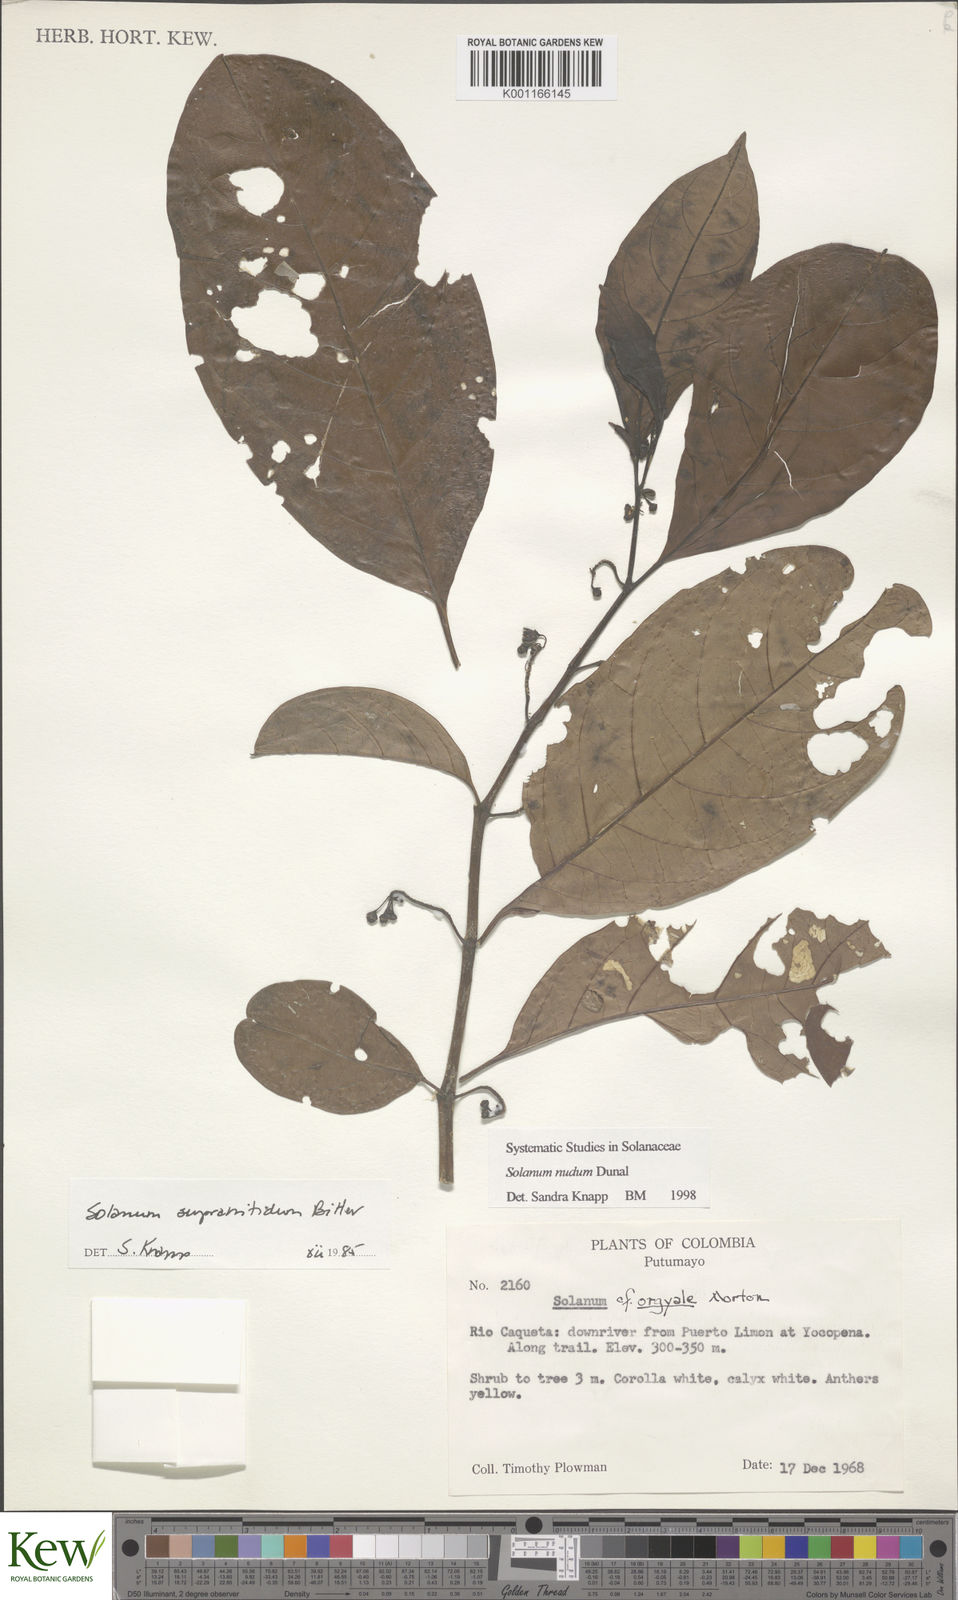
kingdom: Plantae
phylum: Tracheophyta
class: Magnoliopsida
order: Solanales
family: Solanaceae
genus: Solanum
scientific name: Solanum nudum
